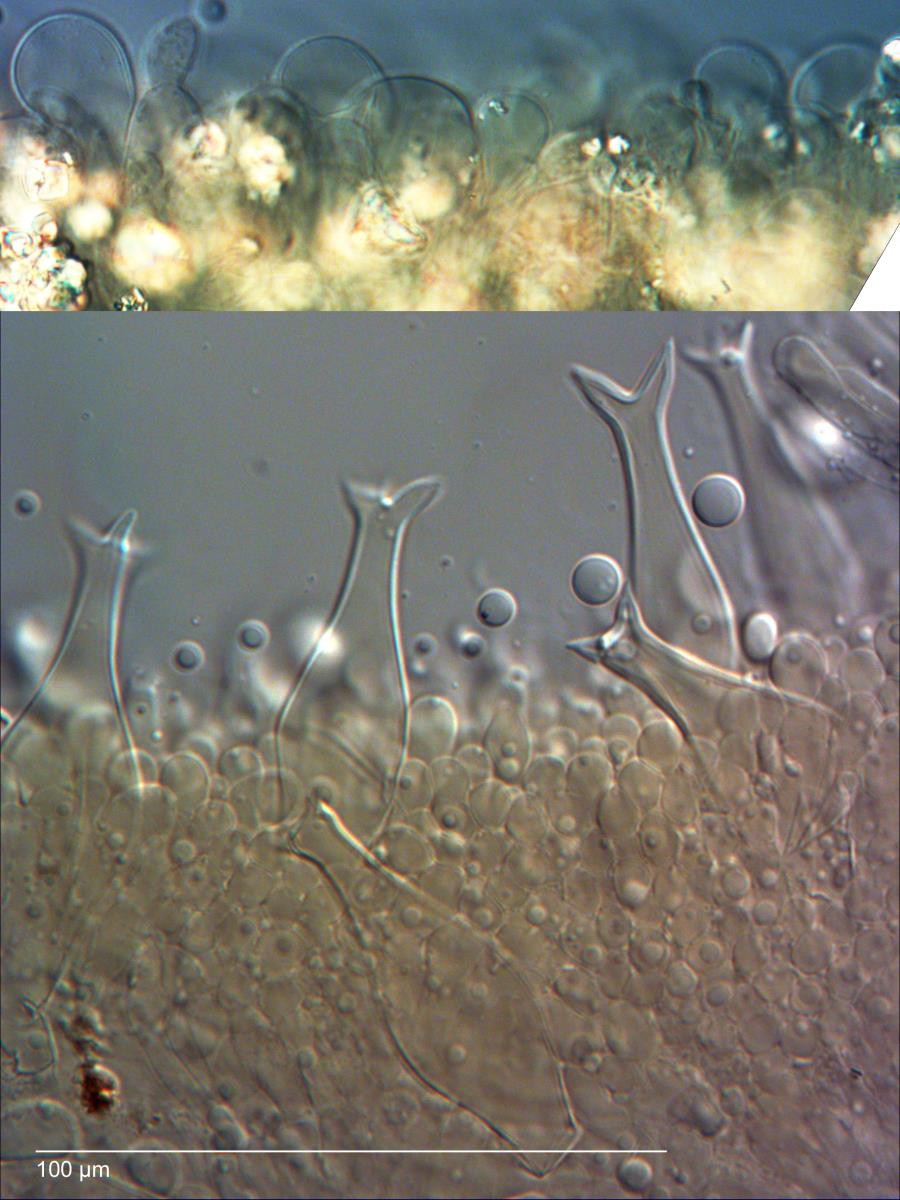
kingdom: Fungi
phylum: Basidiomycota
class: Agaricomycetes
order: Agaricales
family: Pluteaceae
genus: Pluteus
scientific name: Pluteus pouzarianus
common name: Conifer shield
